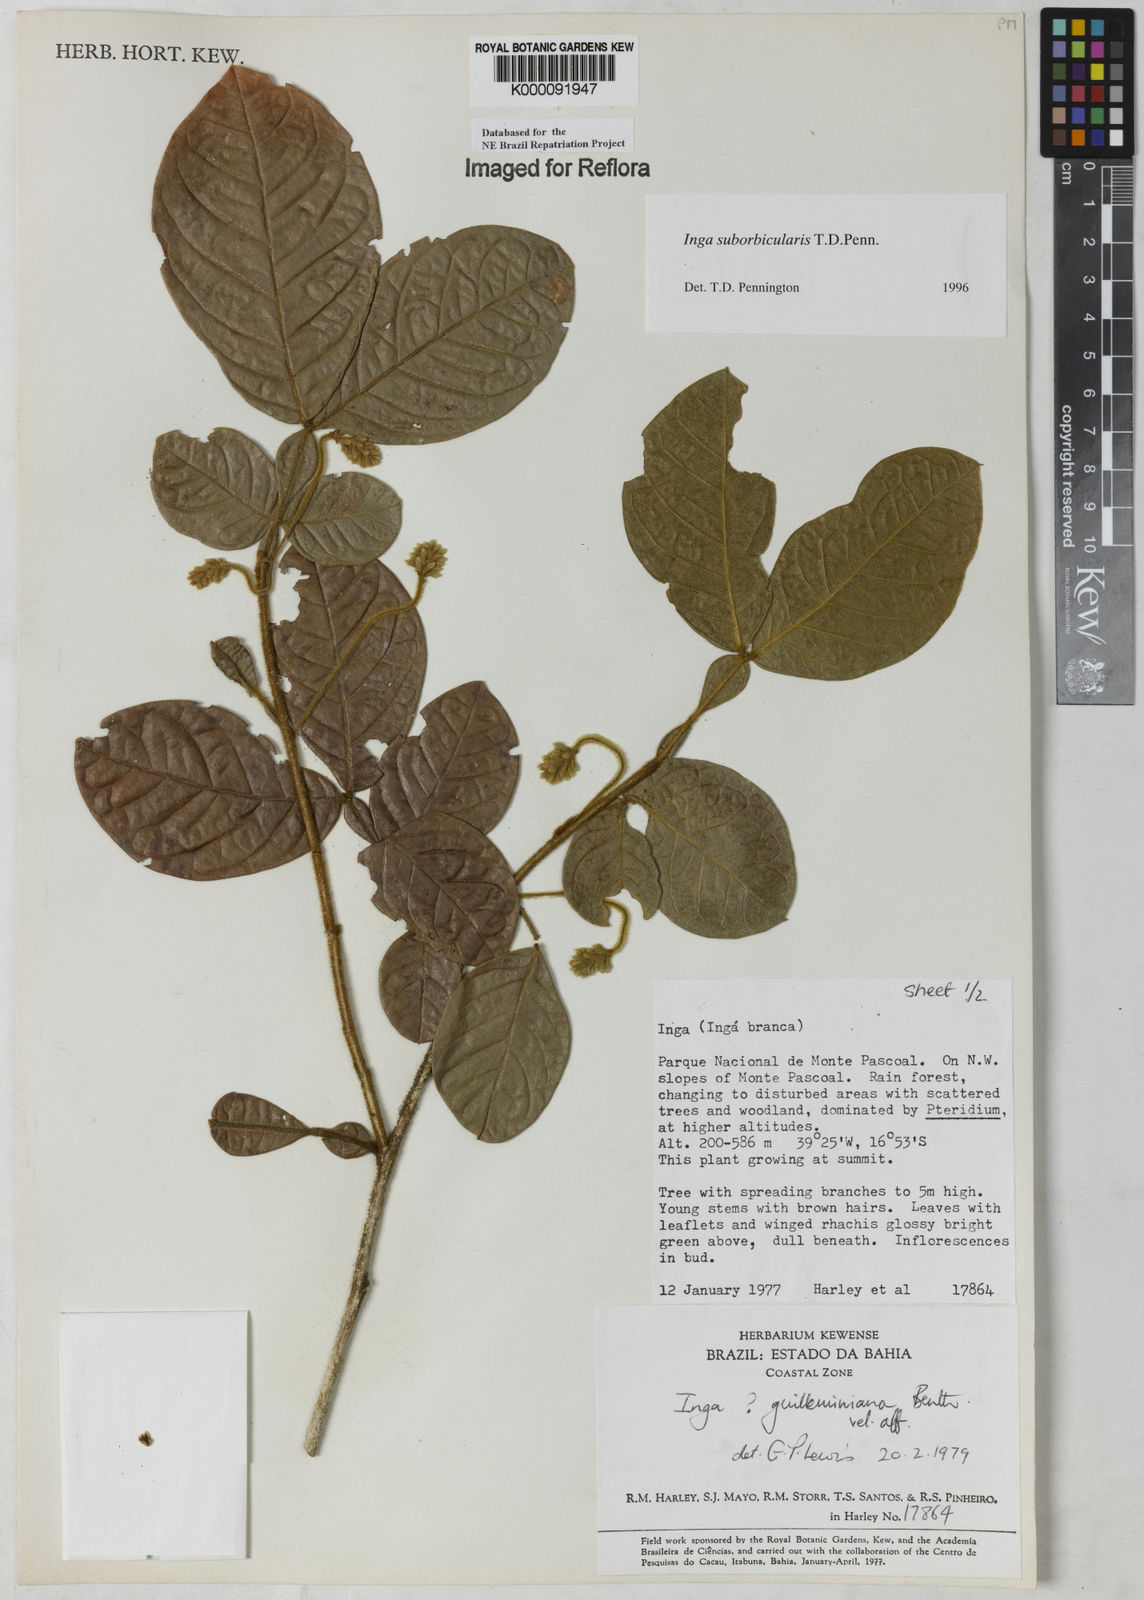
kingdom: Plantae
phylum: Tracheophyta
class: Magnoliopsida
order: Fabales
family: Fabaceae
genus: Inga
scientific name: Inga suborbicularis
